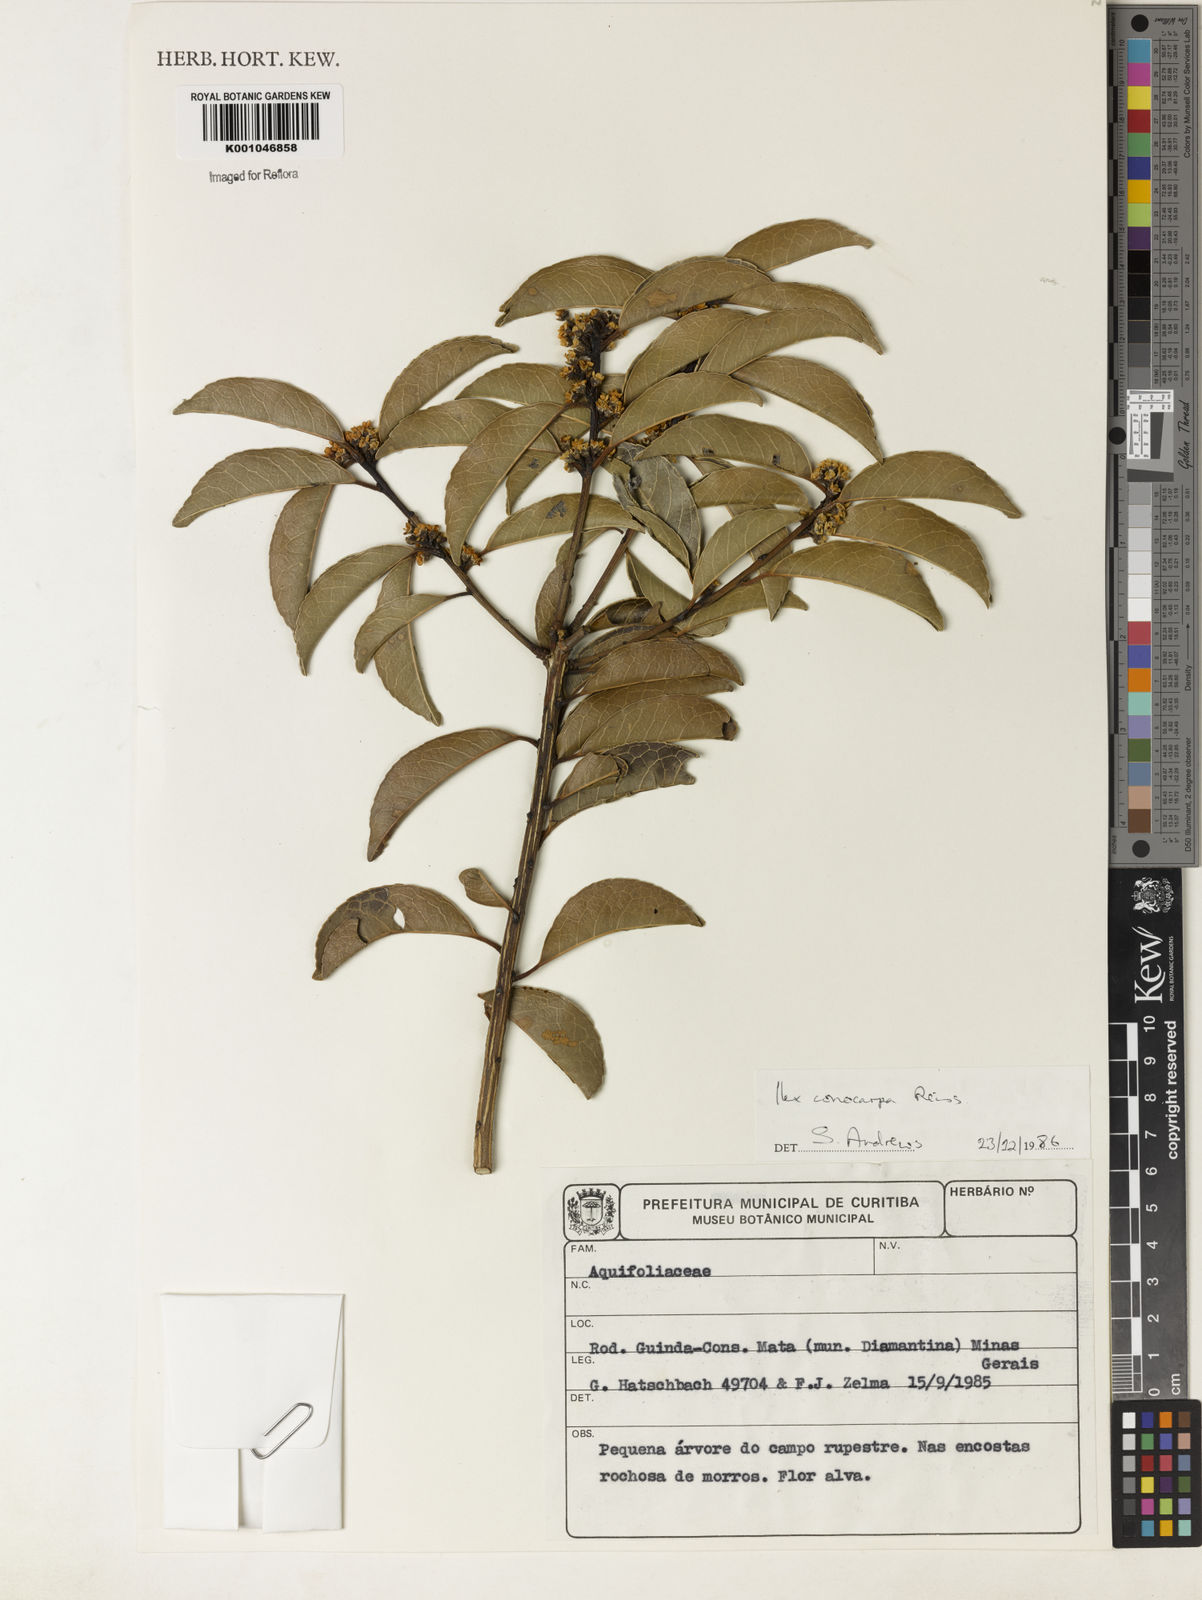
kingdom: Plantae
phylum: Tracheophyta
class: Magnoliopsida
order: Aquifoliales
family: Aquifoliaceae
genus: Ilex
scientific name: Ilex conocarpa
